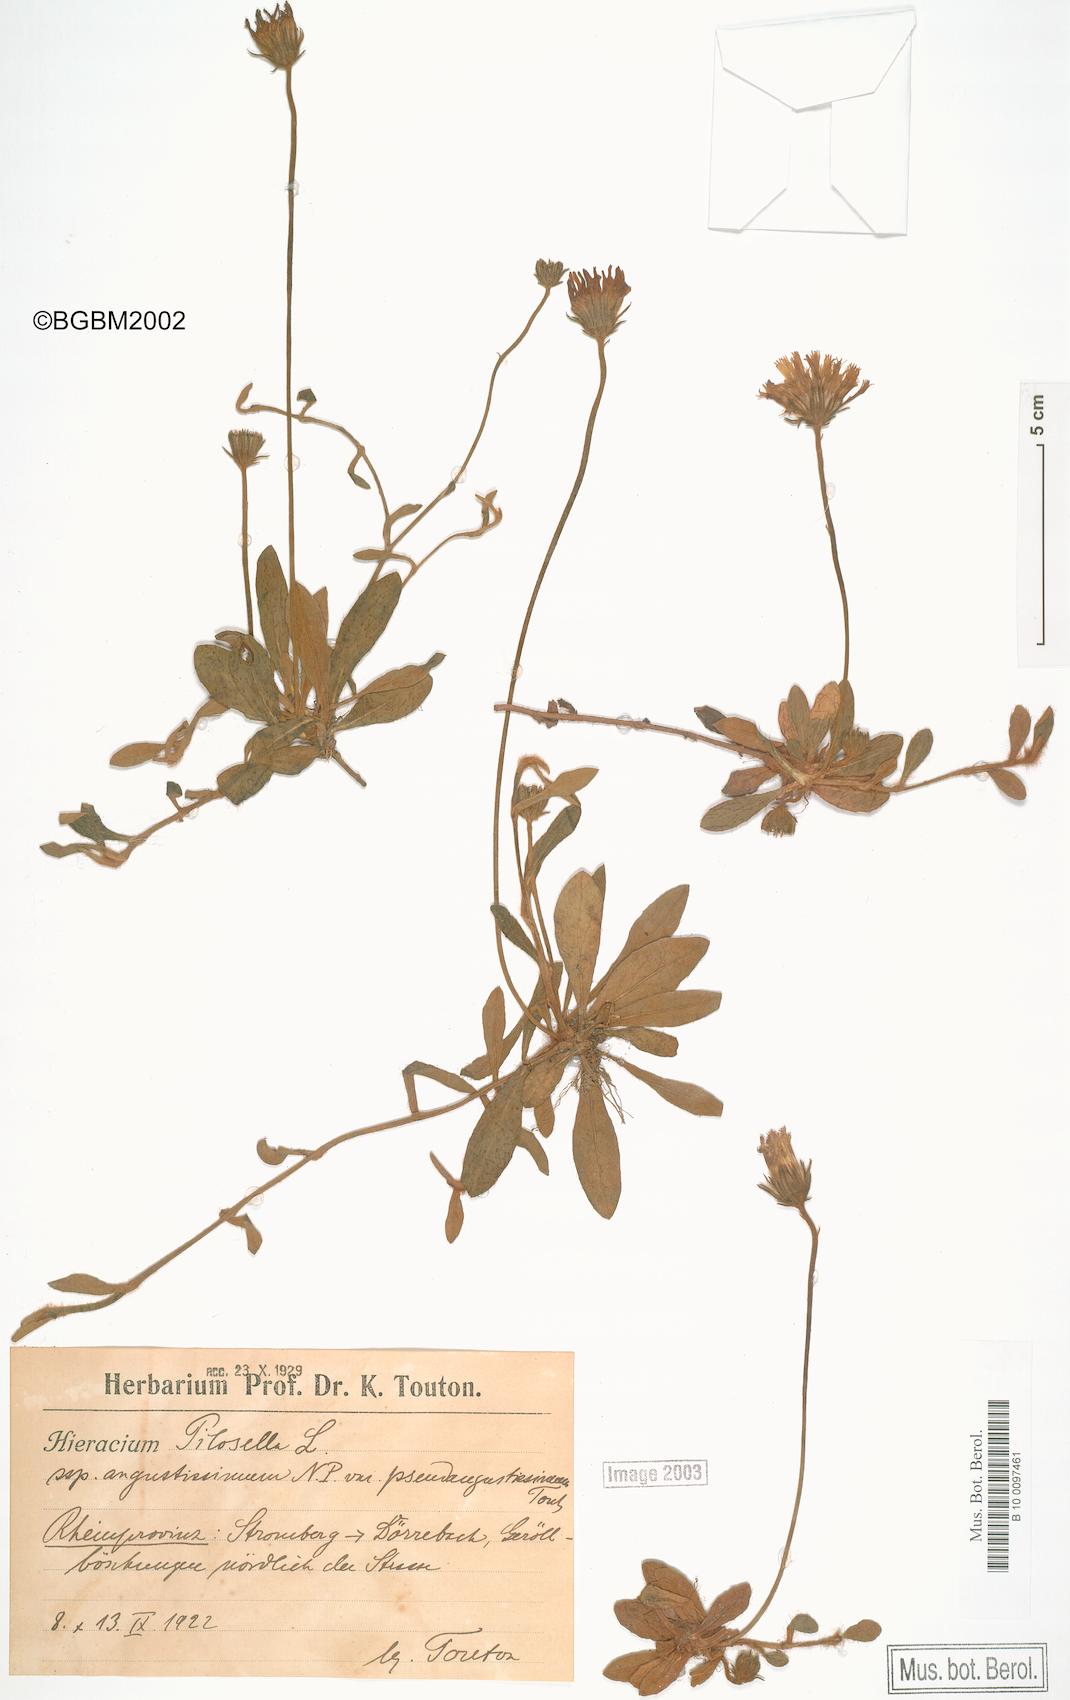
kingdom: Plantae
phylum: Tracheophyta
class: Magnoliopsida
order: Asterales
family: Asteraceae
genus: Pilosella
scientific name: Pilosella officinarum
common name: Mouse-ear hawkweed
